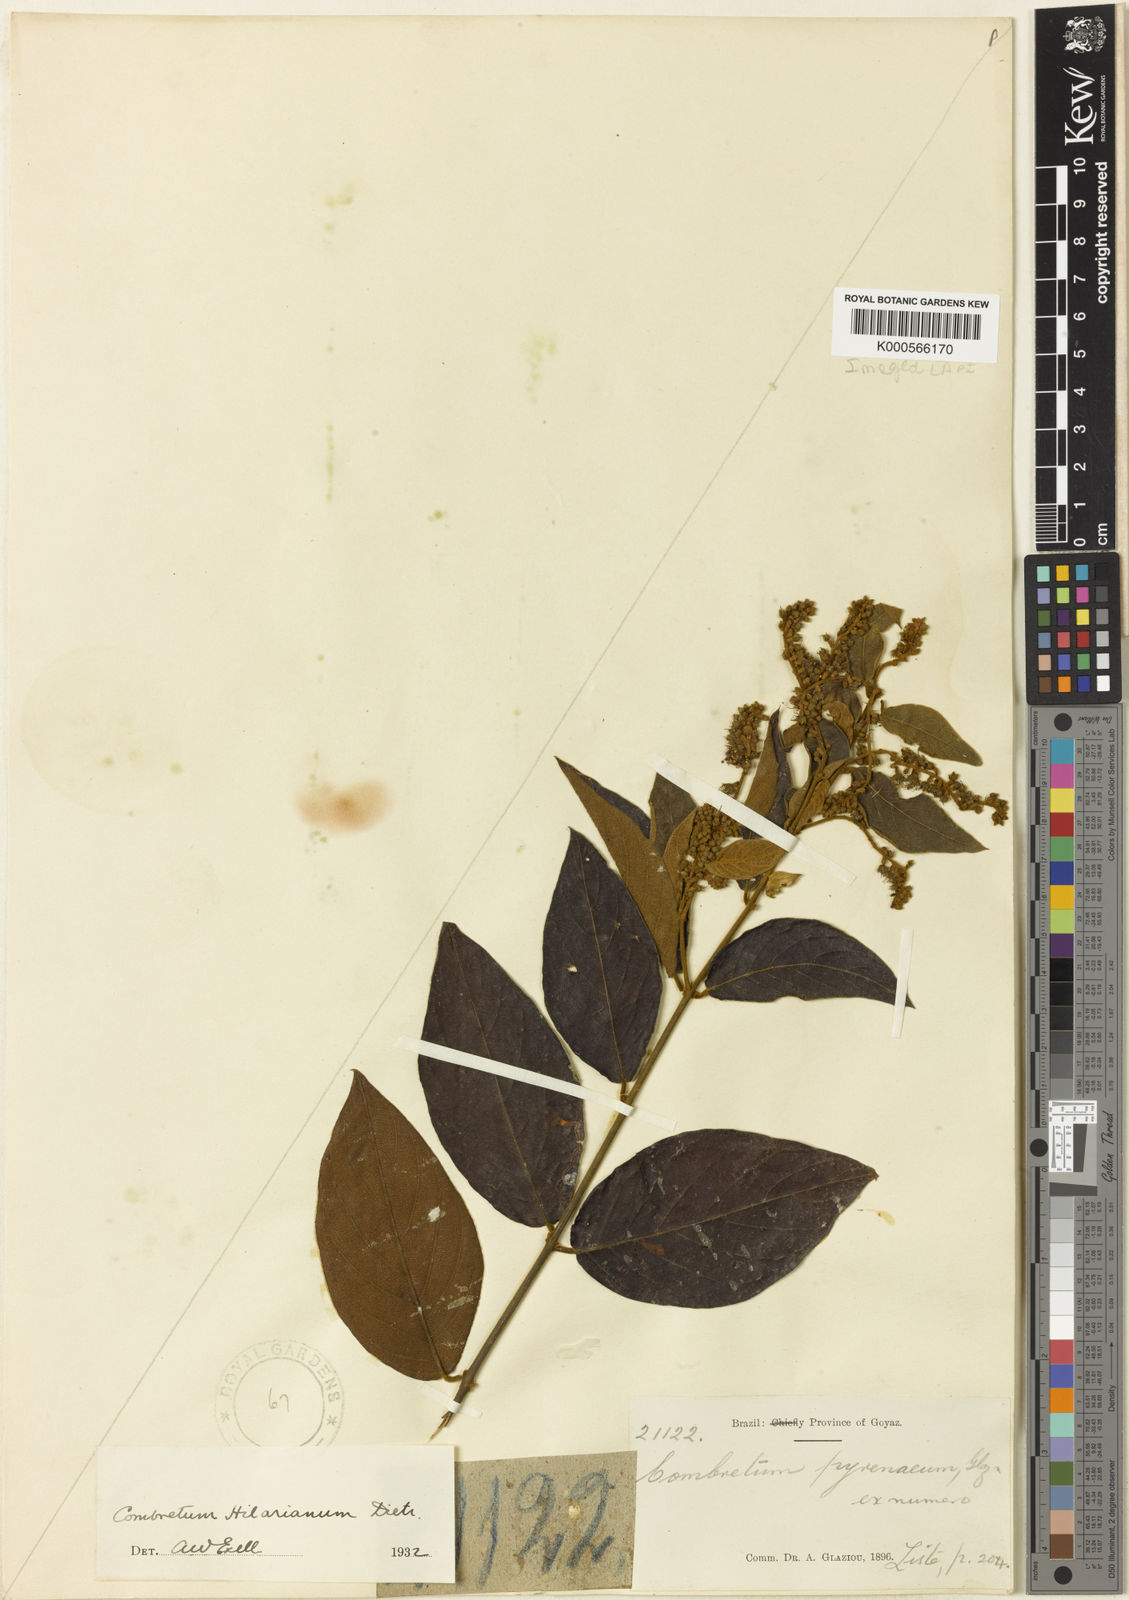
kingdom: Plantae
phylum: Tracheophyta
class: Magnoliopsida
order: Myrtales
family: Combretaceae
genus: Combretum
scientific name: Combretum hilarianum
